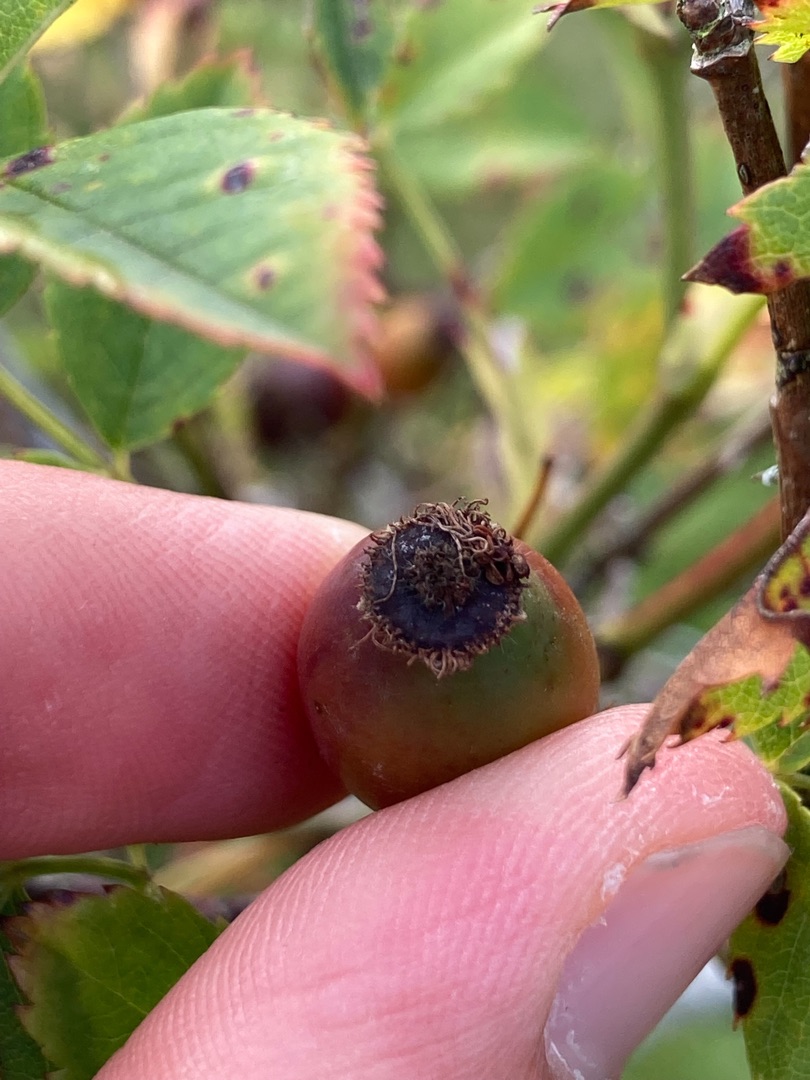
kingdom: Plantae
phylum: Tracheophyta
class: Magnoliopsida
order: Rosales
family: Rosaceae
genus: Rosa
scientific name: Rosa canina
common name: Glat hunde-rose
